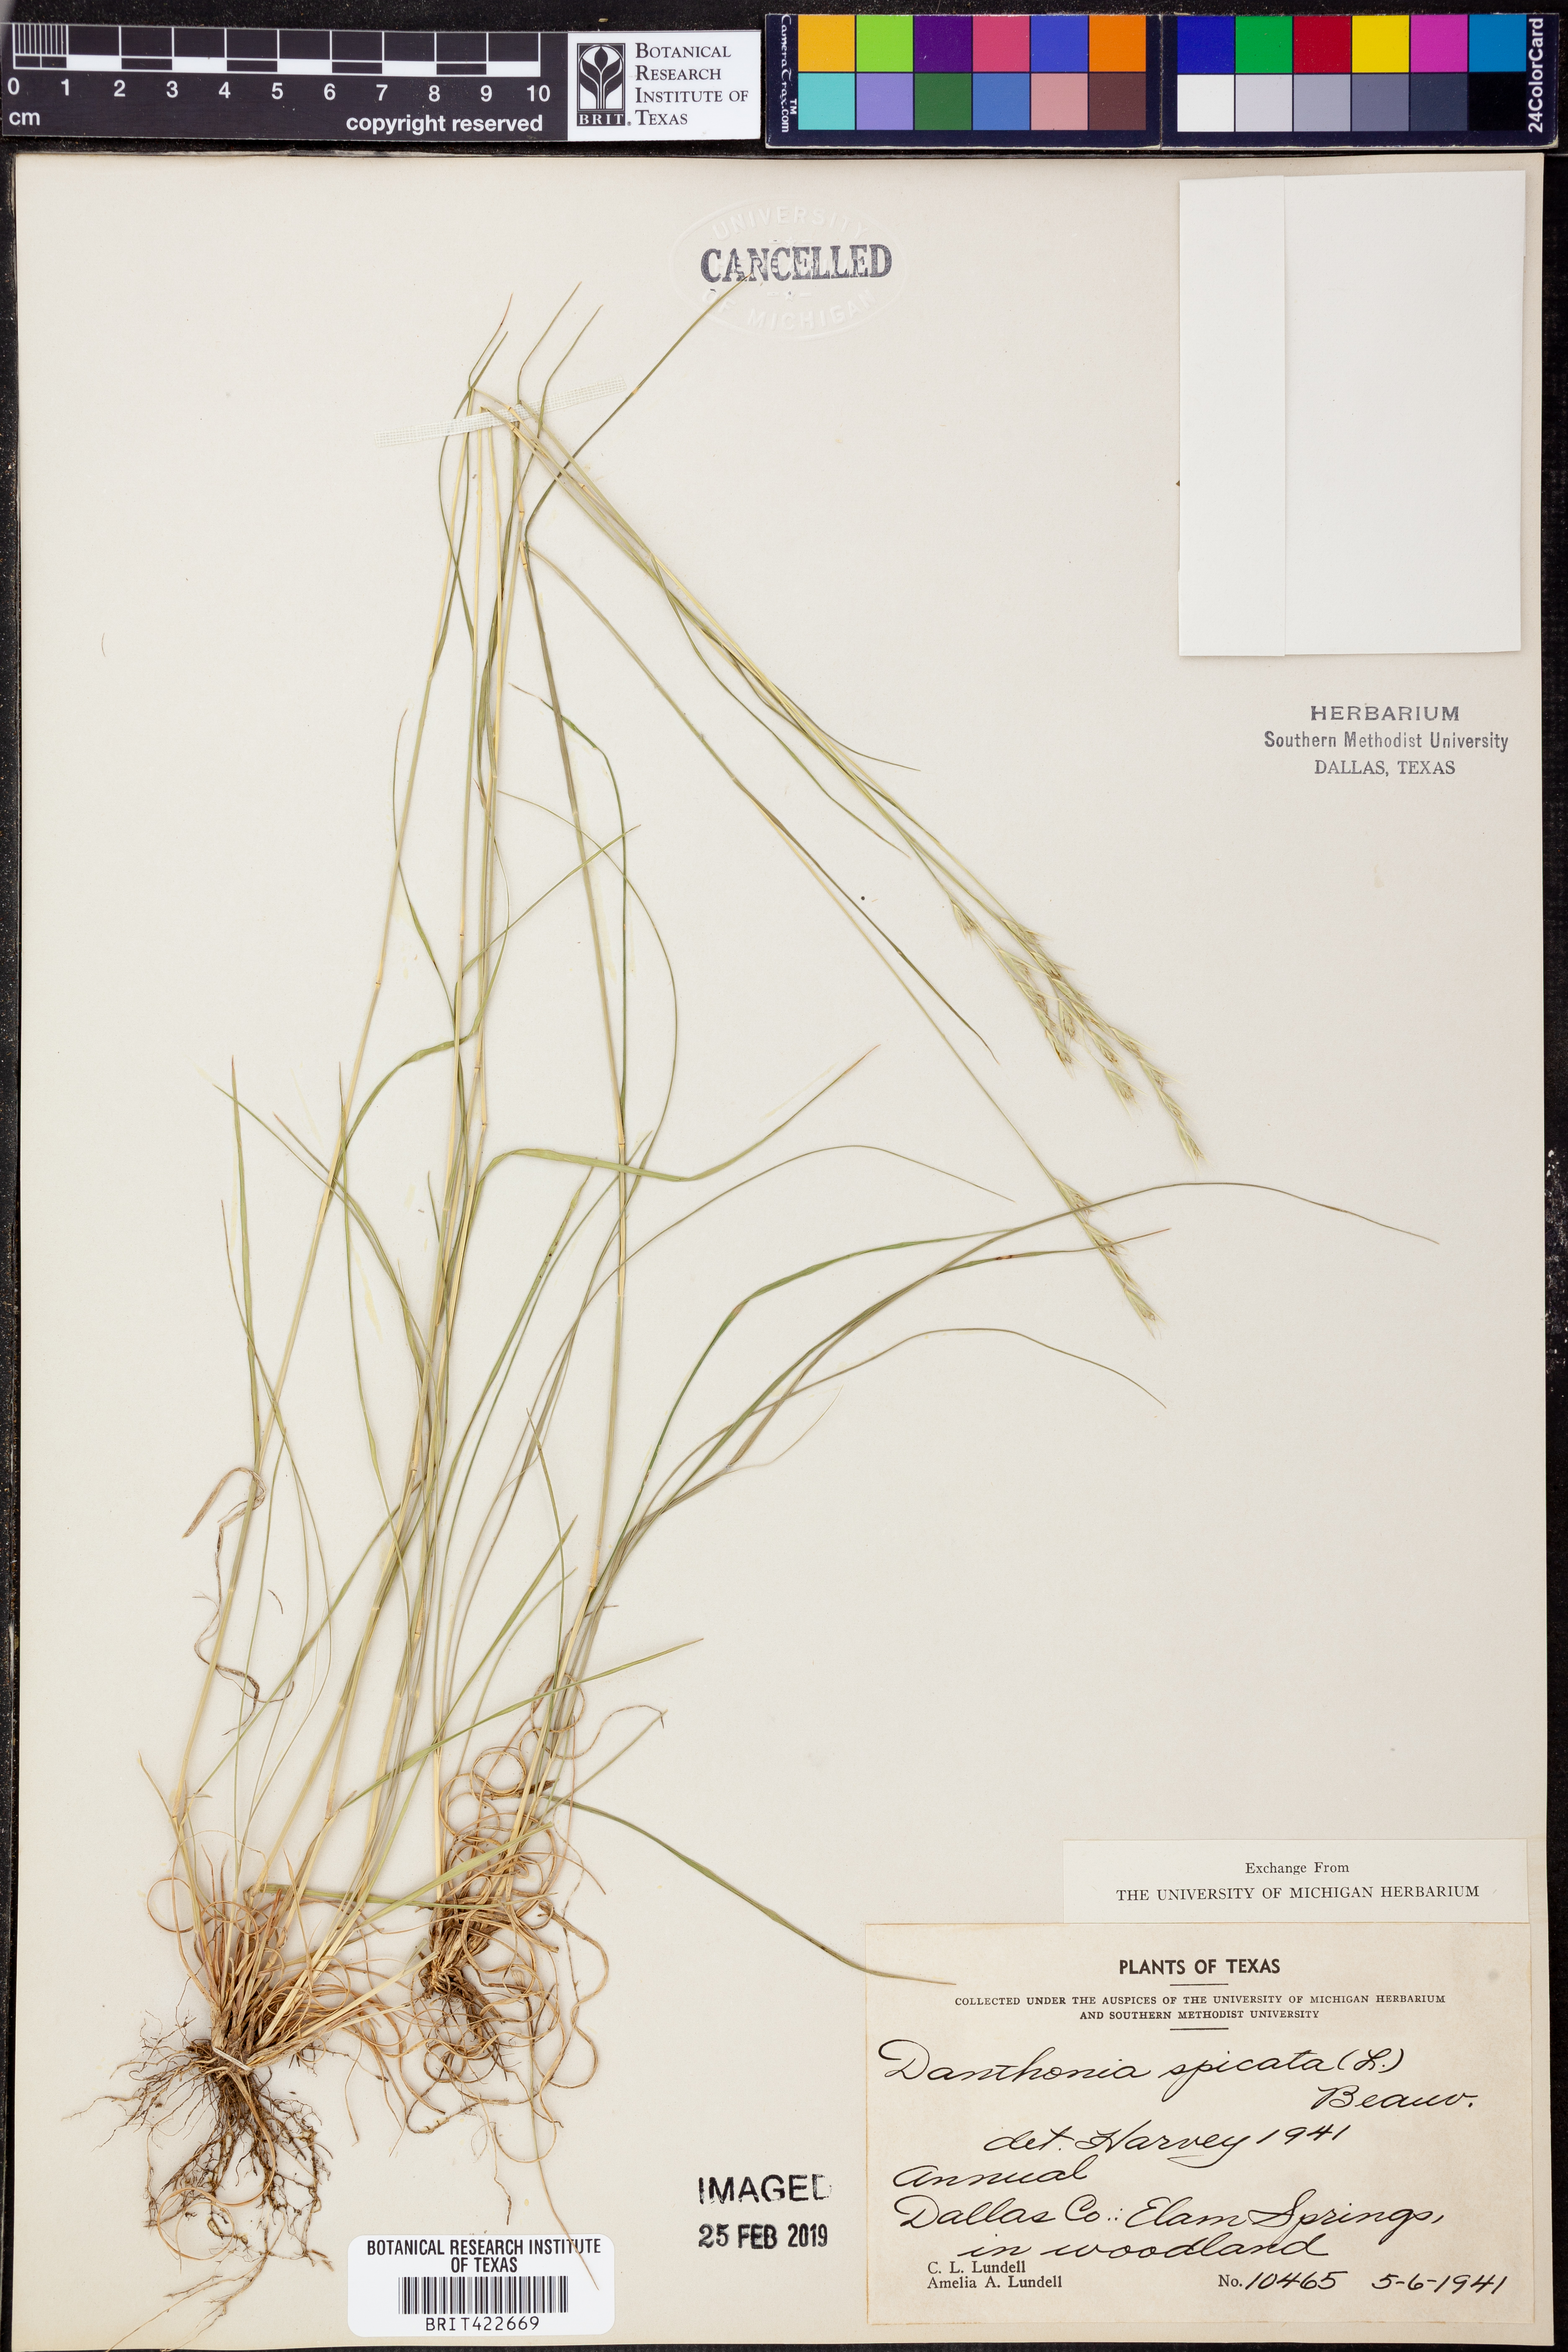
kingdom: Plantae
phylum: Tracheophyta
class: Liliopsida
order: Poales
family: Poaceae
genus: Danthonia
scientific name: Danthonia spicata
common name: Common wild oatgrass
